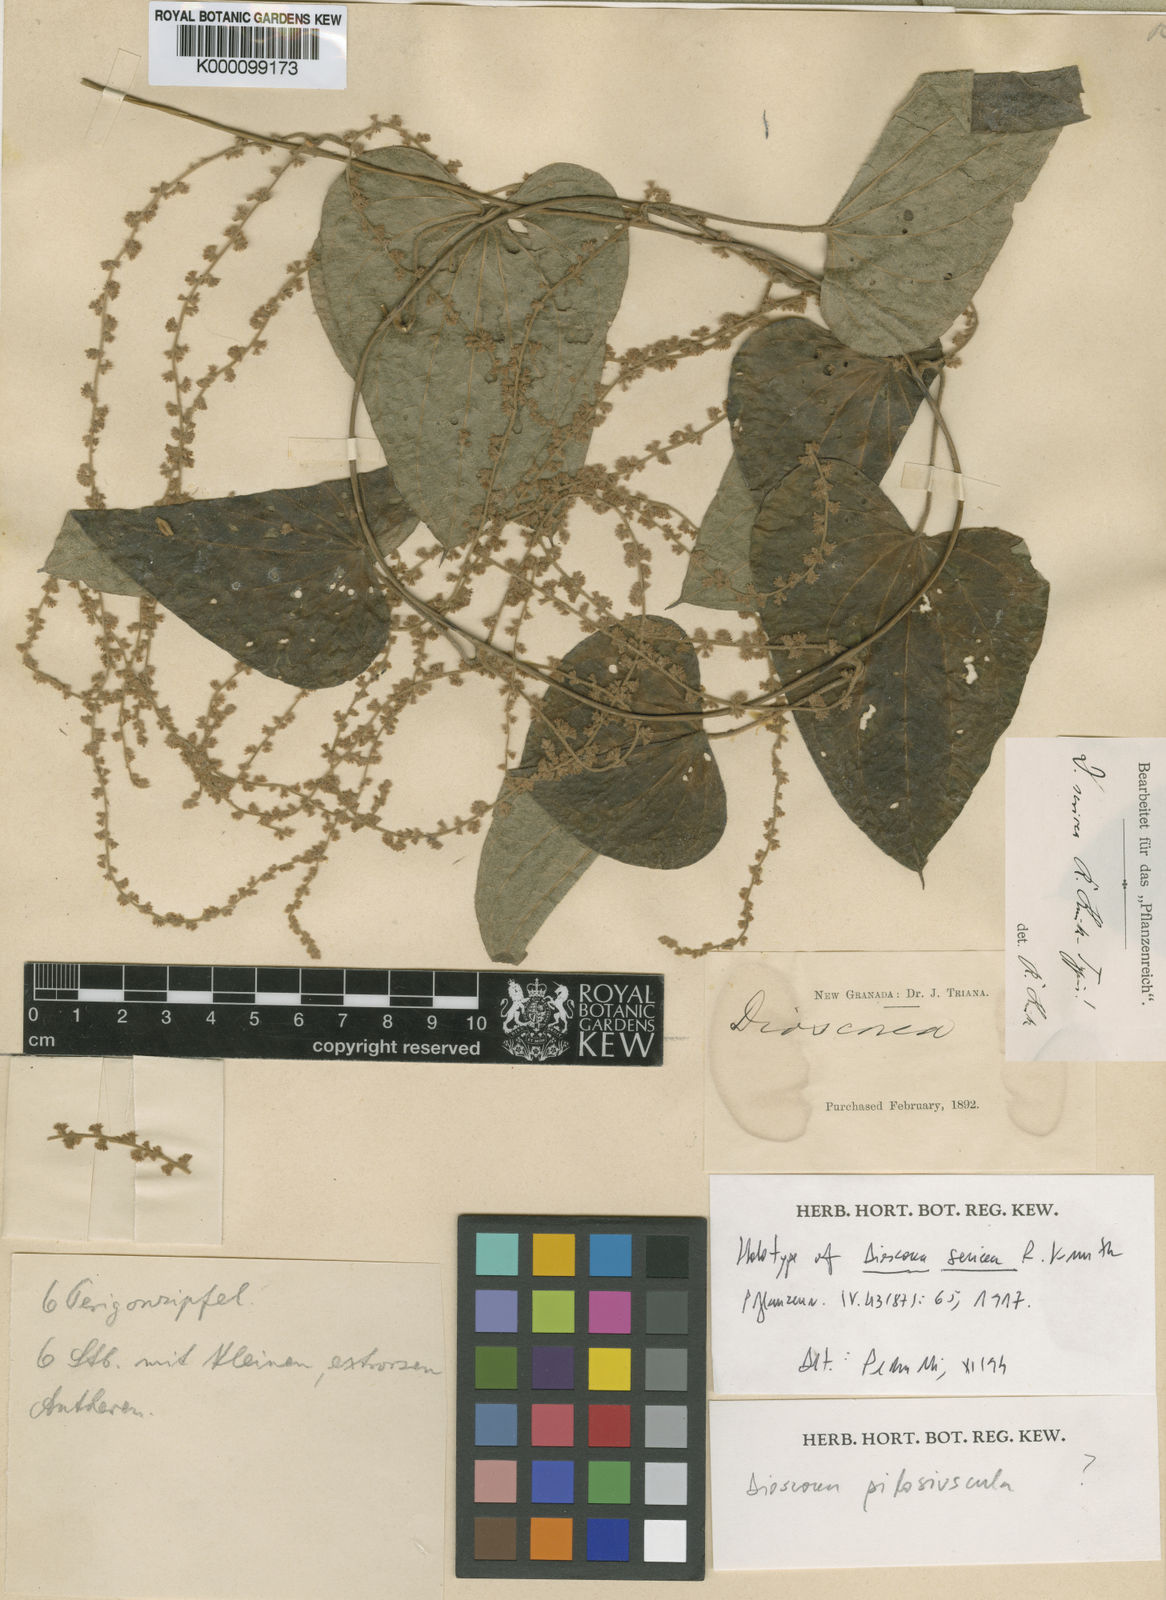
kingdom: Plantae
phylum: Tracheophyta
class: Liliopsida
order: Dioscoreales
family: Dioscoreaceae
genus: Dioscorea
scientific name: Dioscorea sericea
